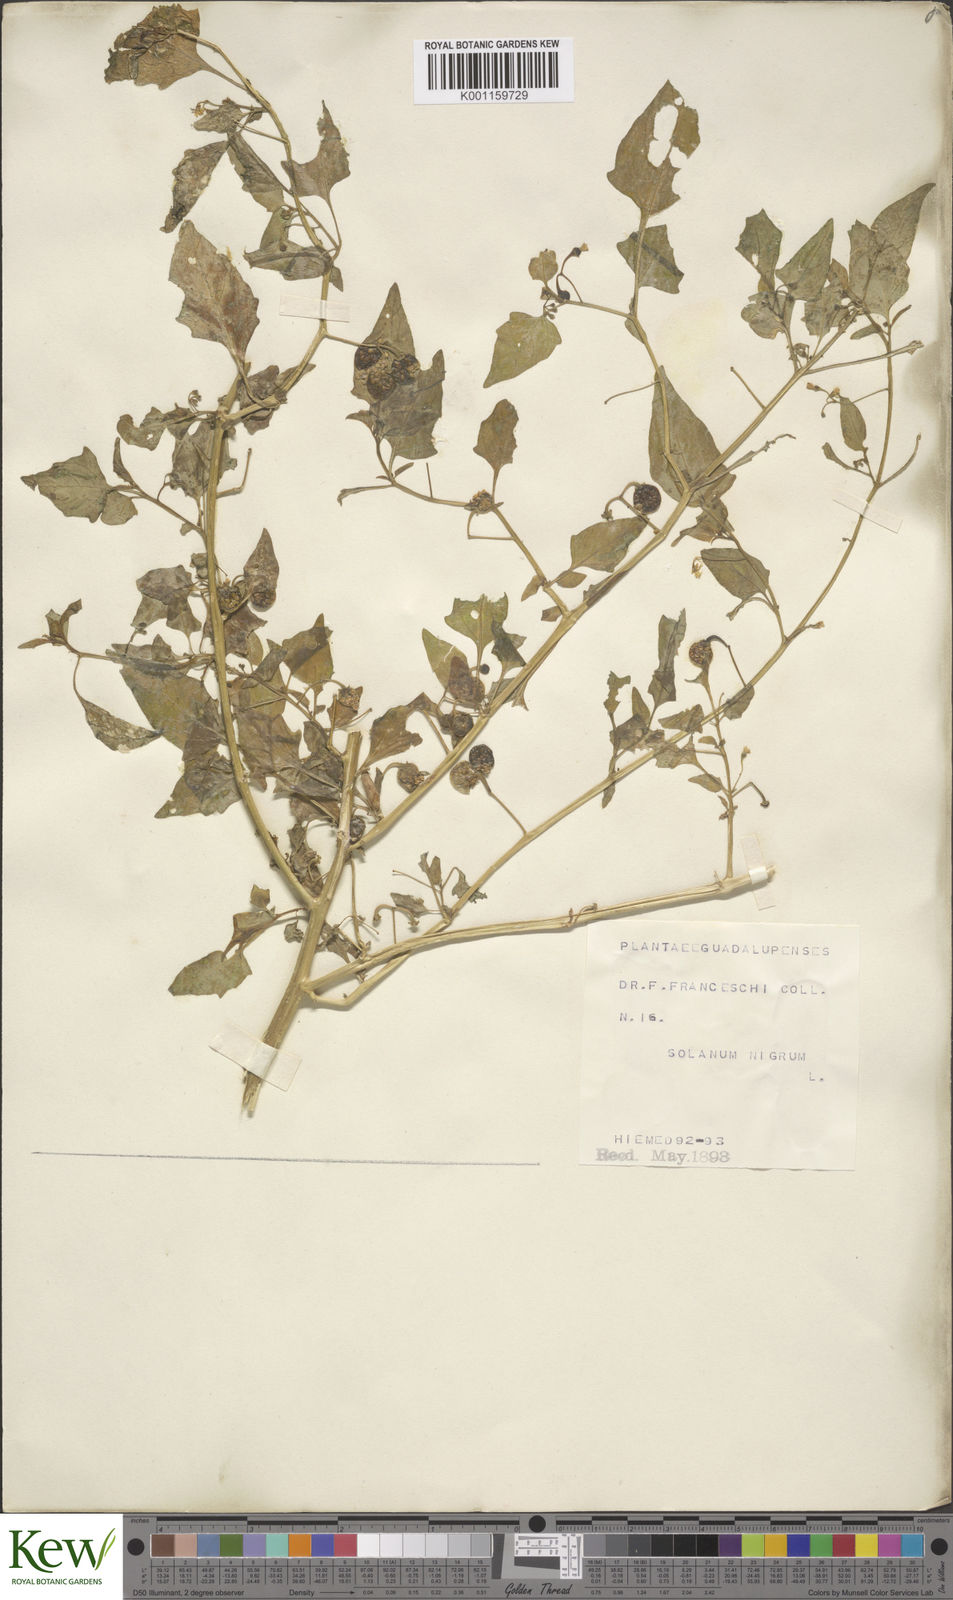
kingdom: Plantae
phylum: Tracheophyta
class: Magnoliopsida
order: Solanales
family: Solanaceae
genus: Solanum
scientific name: Solanum americanum
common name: American black nightshade
